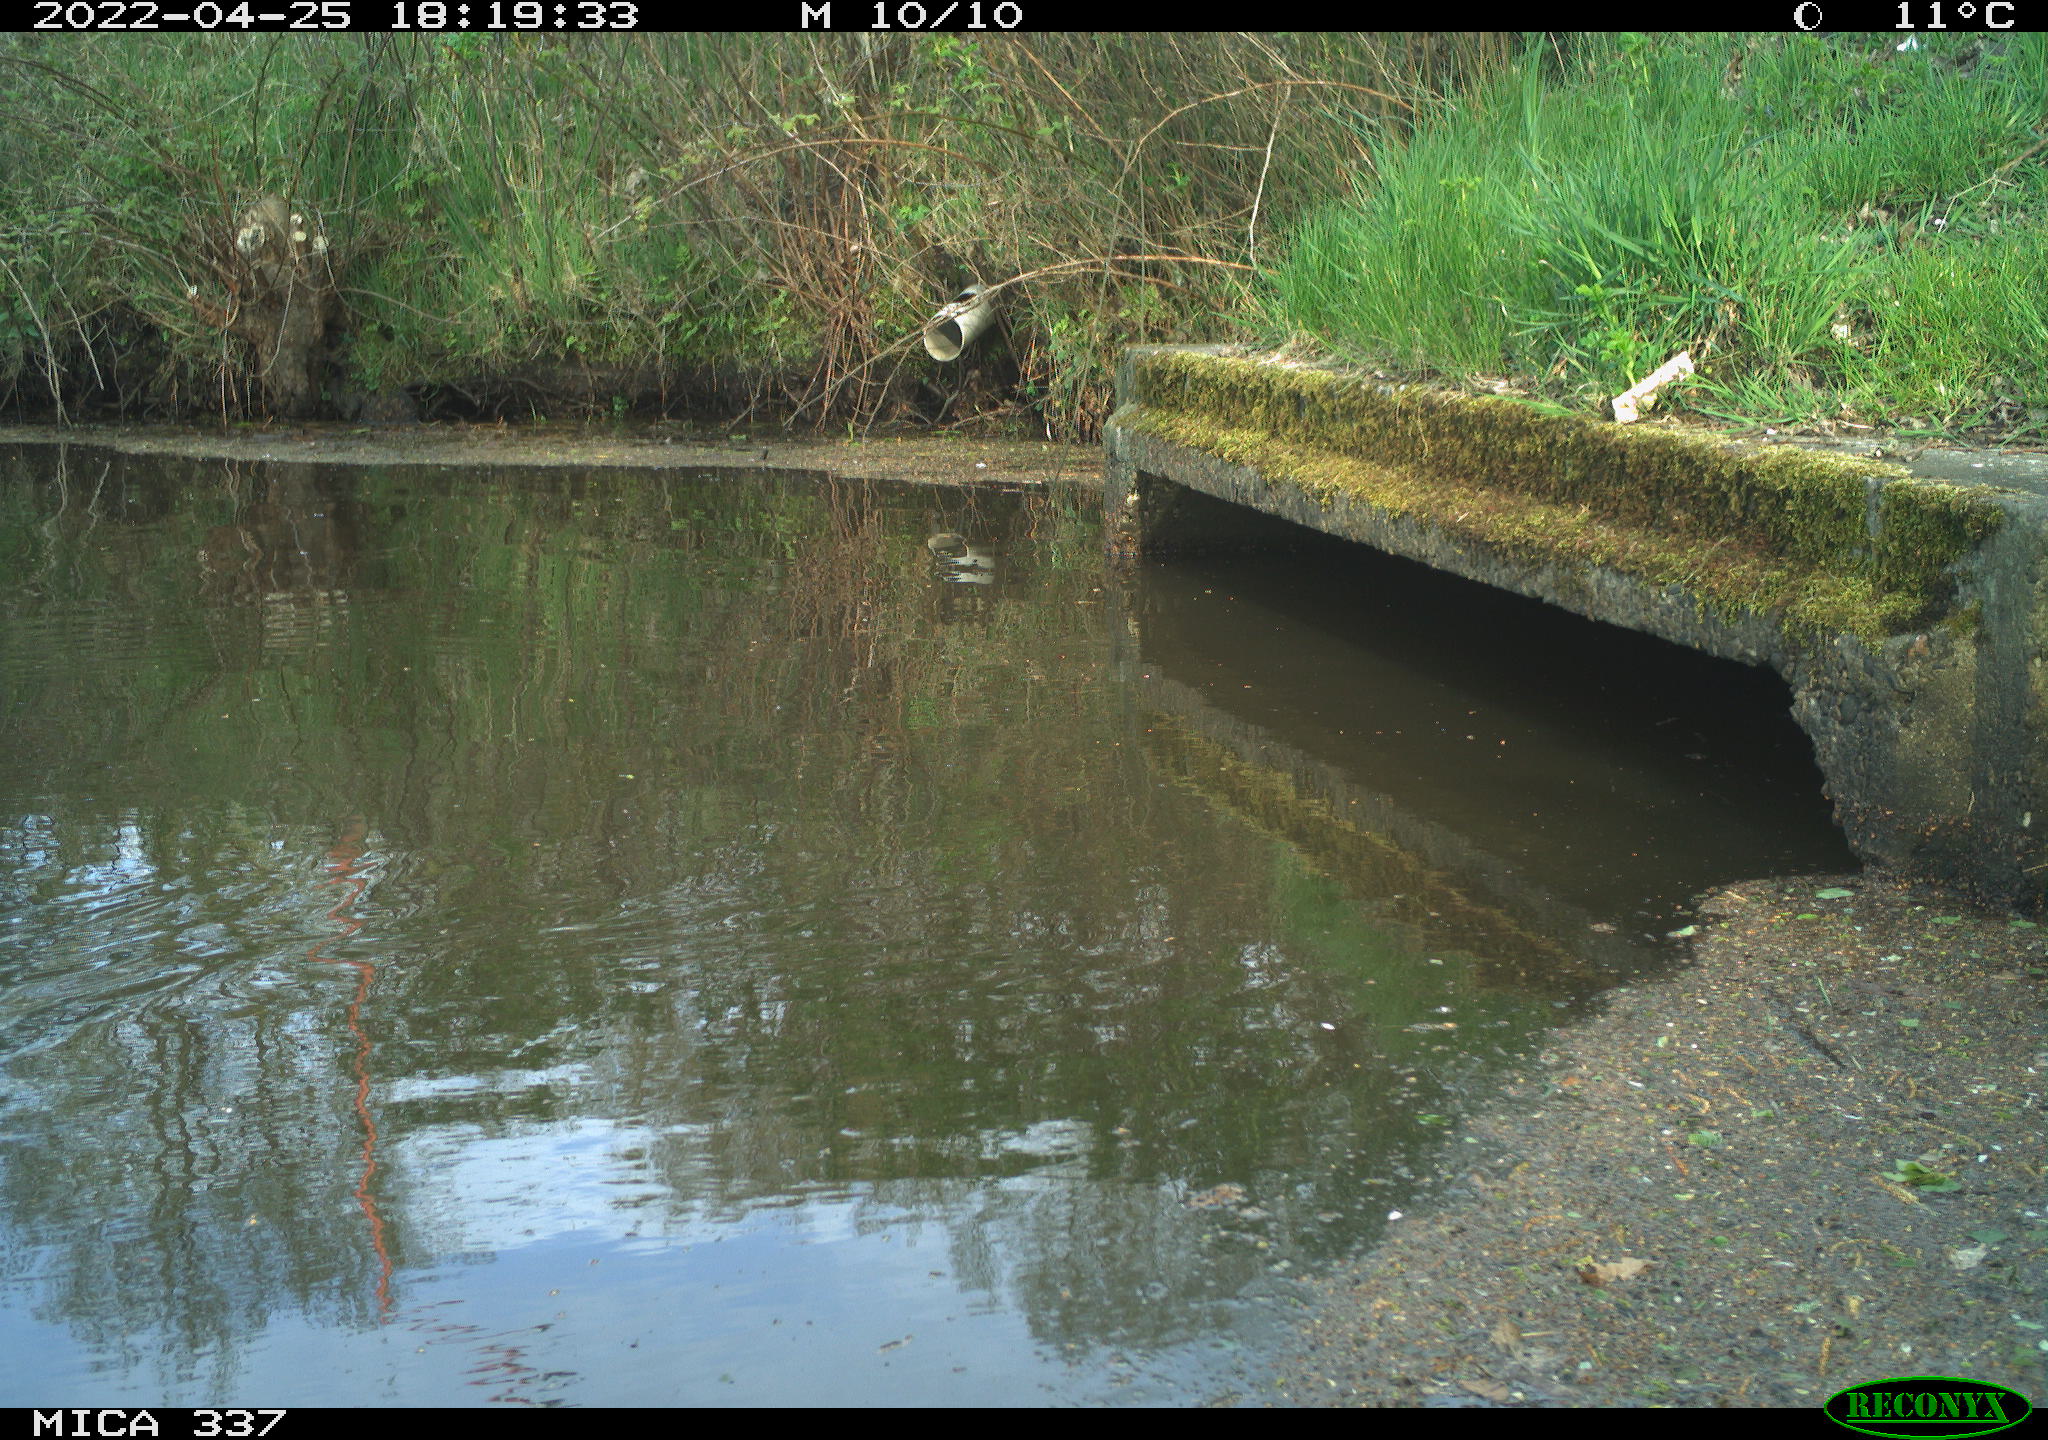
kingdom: Animalia
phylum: Chordata
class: Aves
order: Gruiformes
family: Rallidae
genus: Gallinula
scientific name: Gallinula chloropus
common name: Common moorhen
